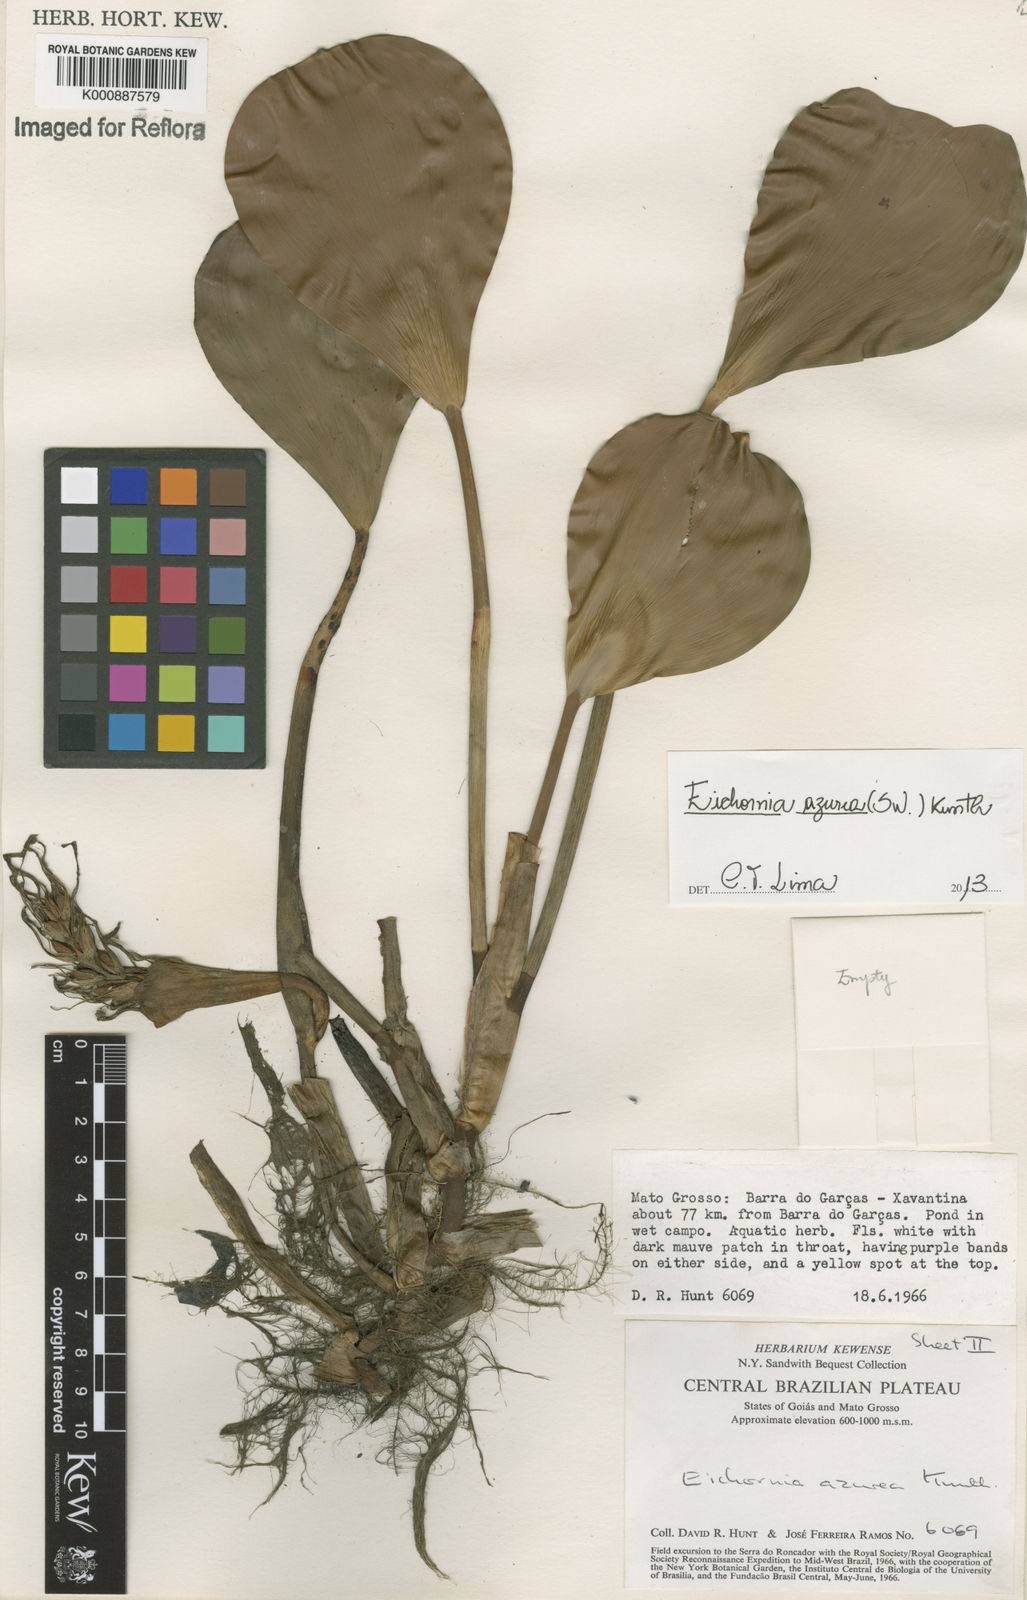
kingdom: Plantae
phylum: Tracheophyta
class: Liliopsida
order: Commelinales
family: Pontederiaceae
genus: Pontederia
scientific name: Pontederia azurea
